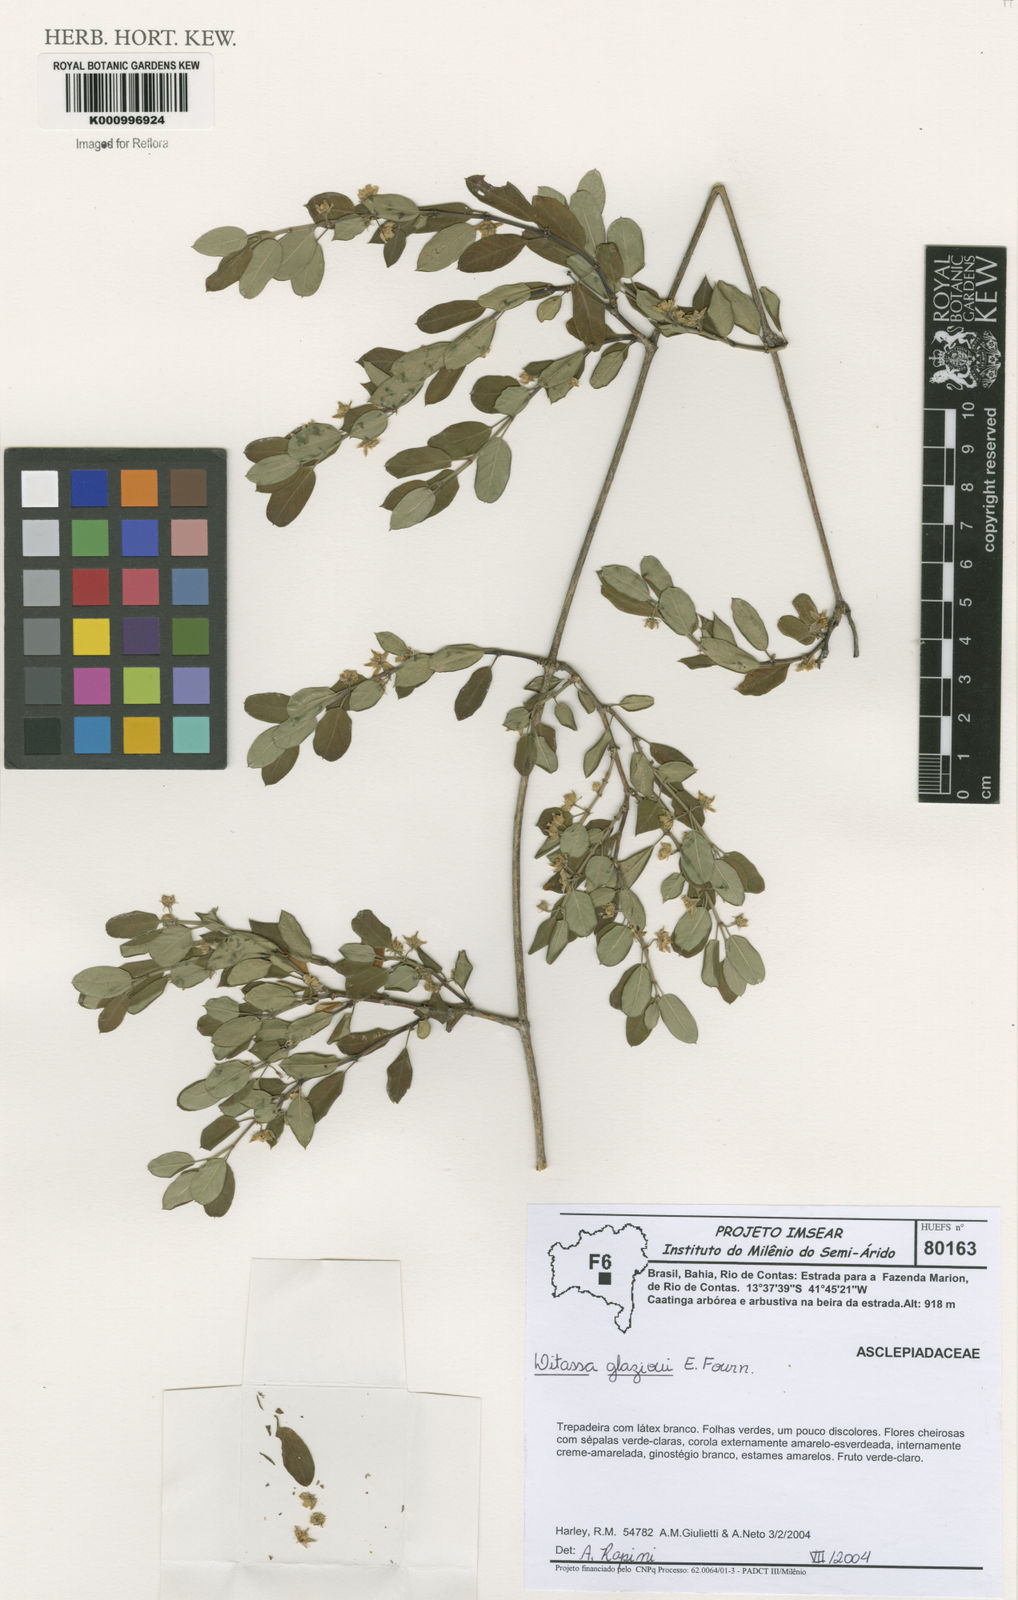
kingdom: Plantae
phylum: Tracheophyta
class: Magnoliopsida
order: Gentianales
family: Apocynaceae
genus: Ditassa
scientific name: Ditassa
